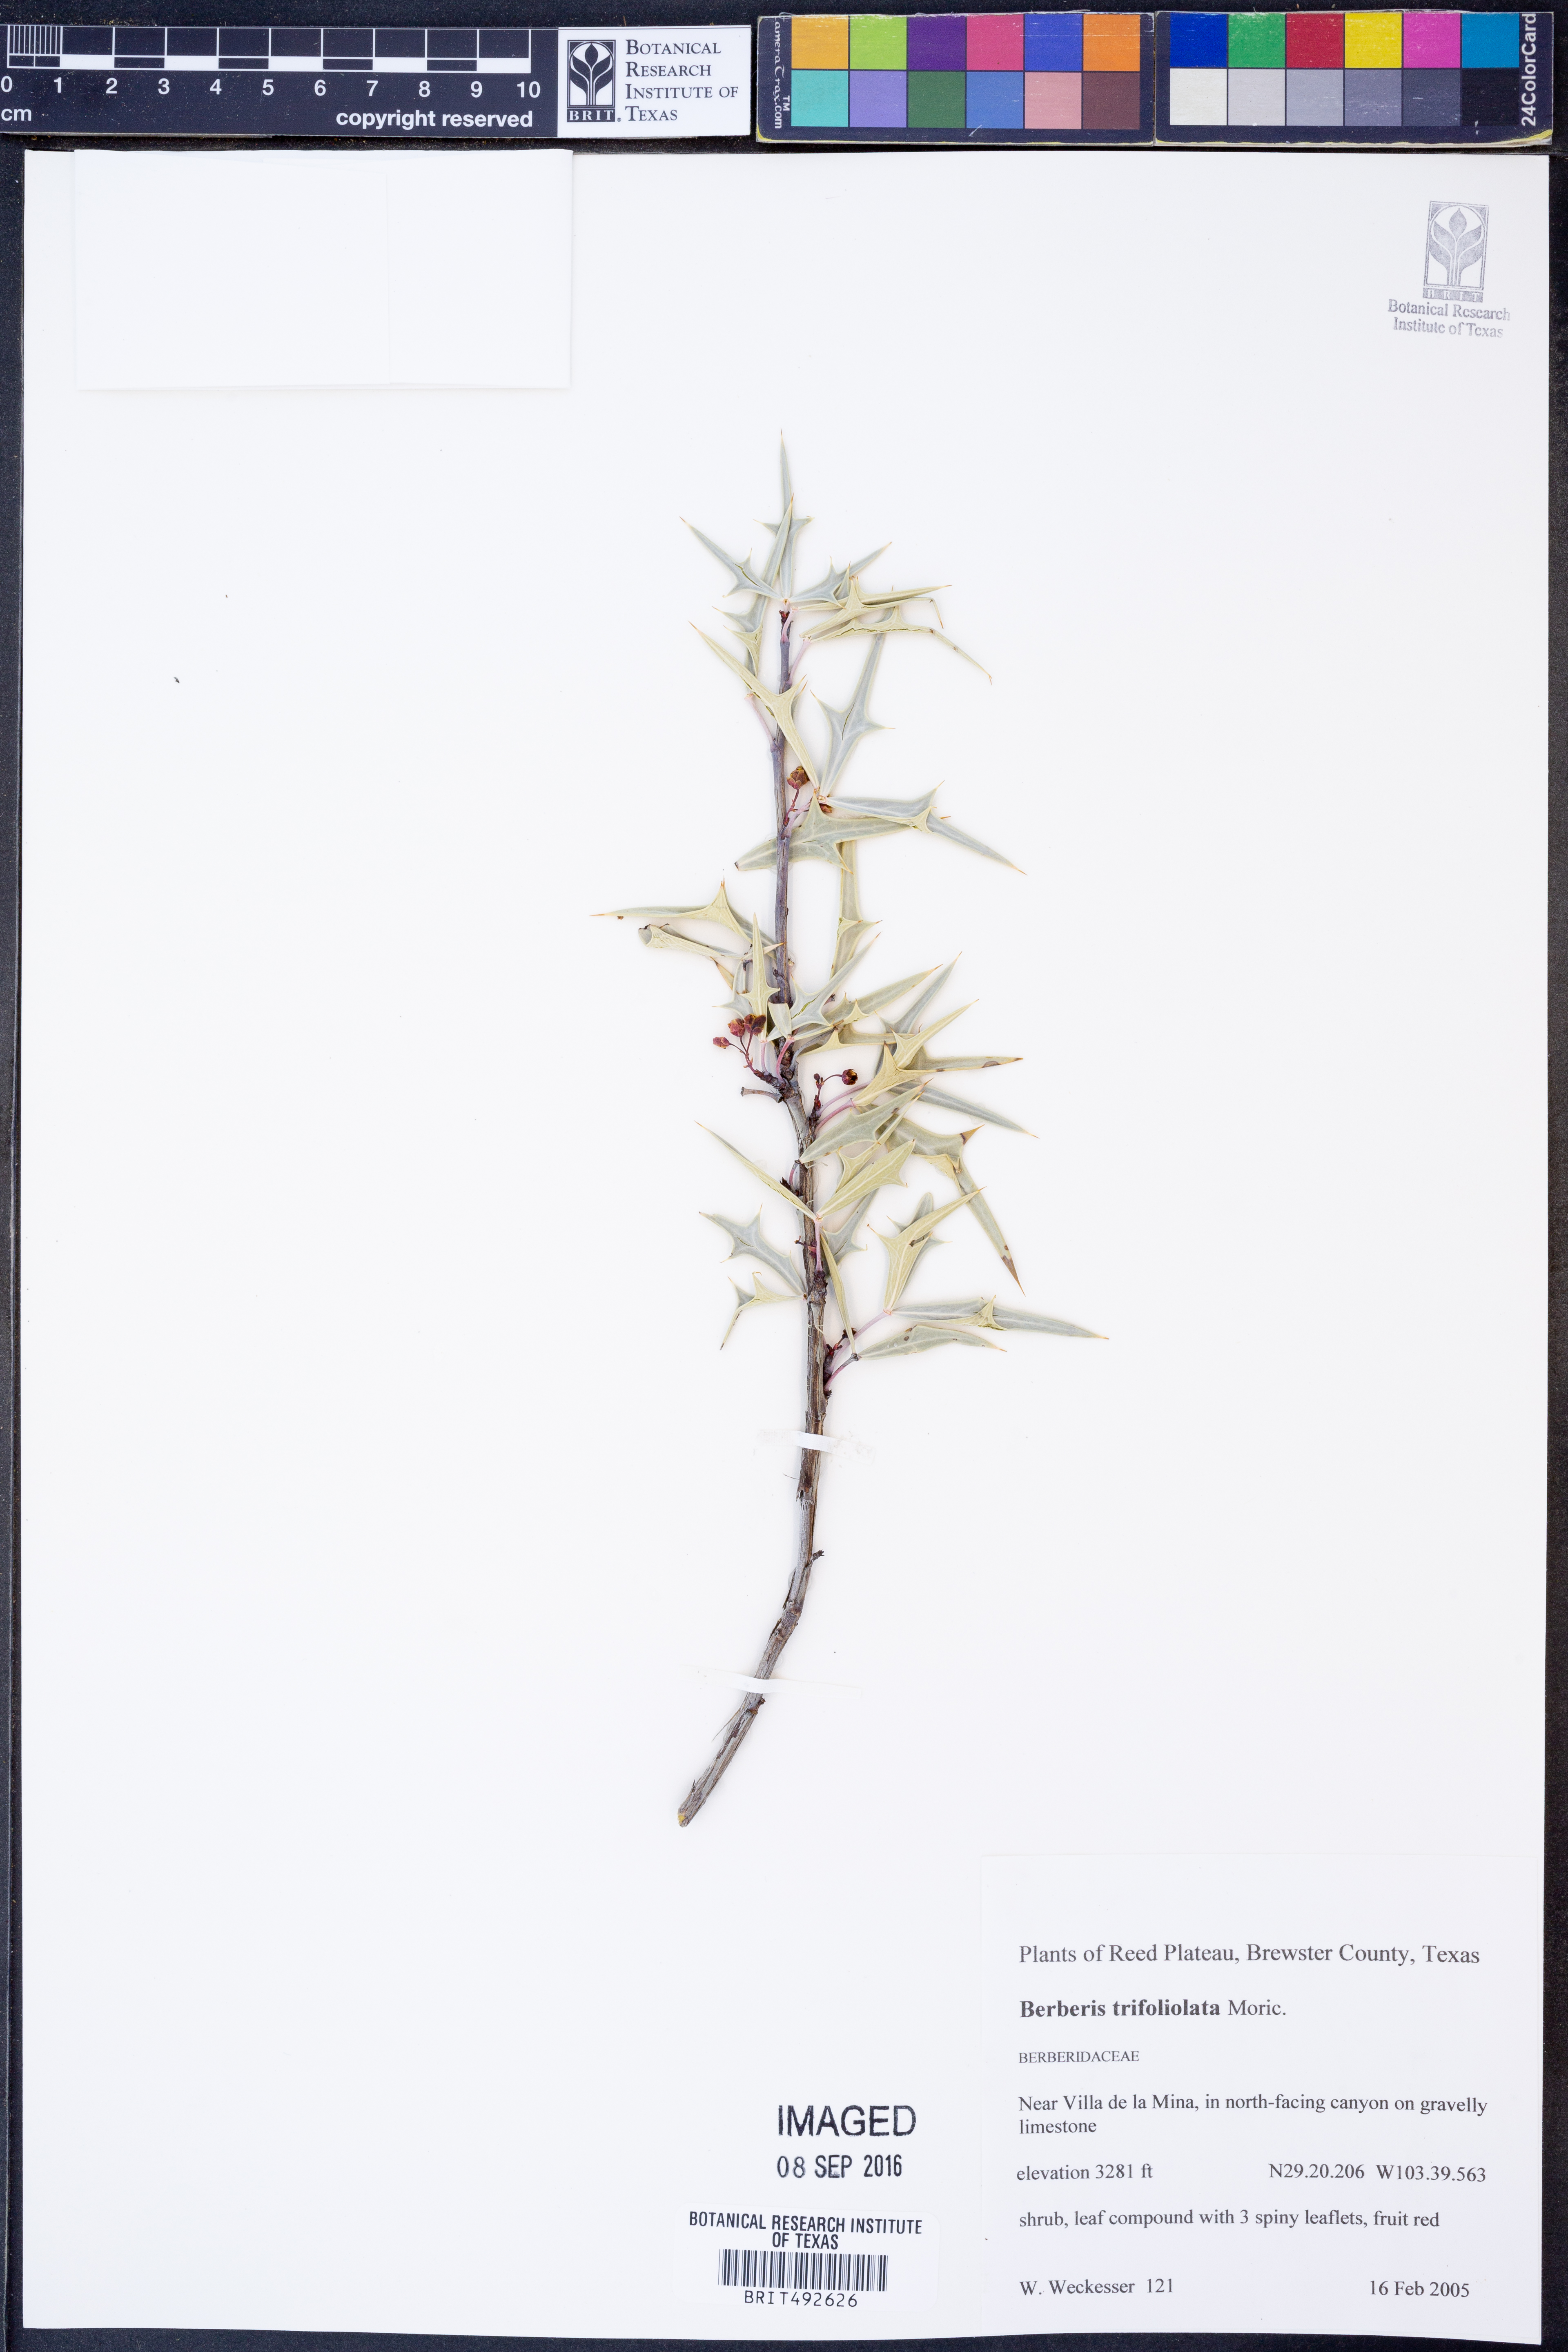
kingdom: Plantae
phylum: Tracheophyta
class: Magnoliopsida
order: Ranunculales
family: Berberidaceae
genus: Alloberberis
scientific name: Alloberberis trifoliolata
